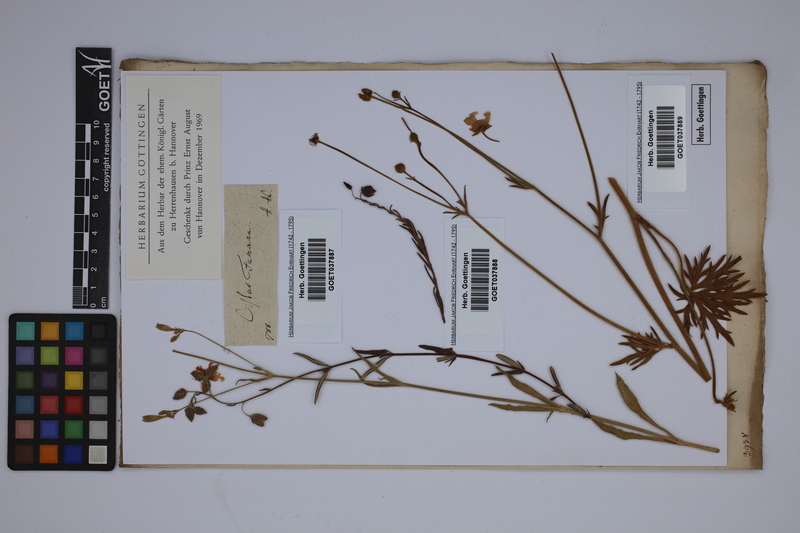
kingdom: Plantae
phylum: Tracheophyta
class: Magnoliopsida
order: Malvales
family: Cistaceae
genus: Fumana
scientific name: Fumana procumbens
